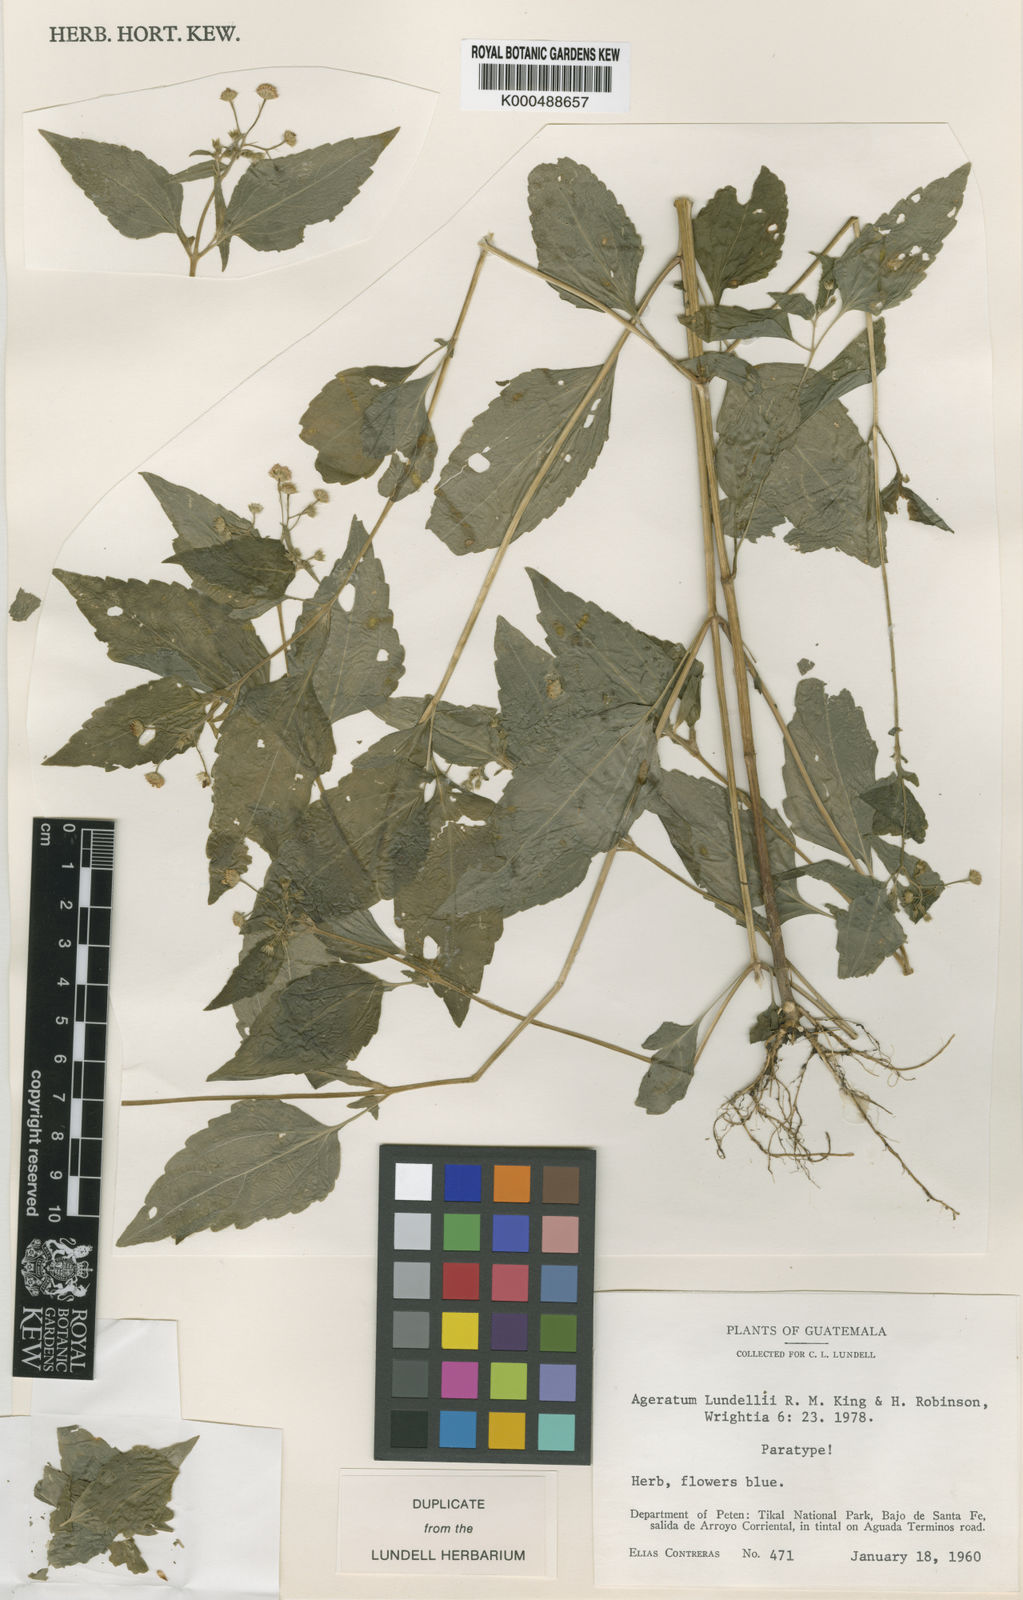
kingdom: Plantae
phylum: Tracheophyta
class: Magnoliopsida
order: Asterales
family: Asteraceae
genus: Ageratum
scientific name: Ageratum lundellii
